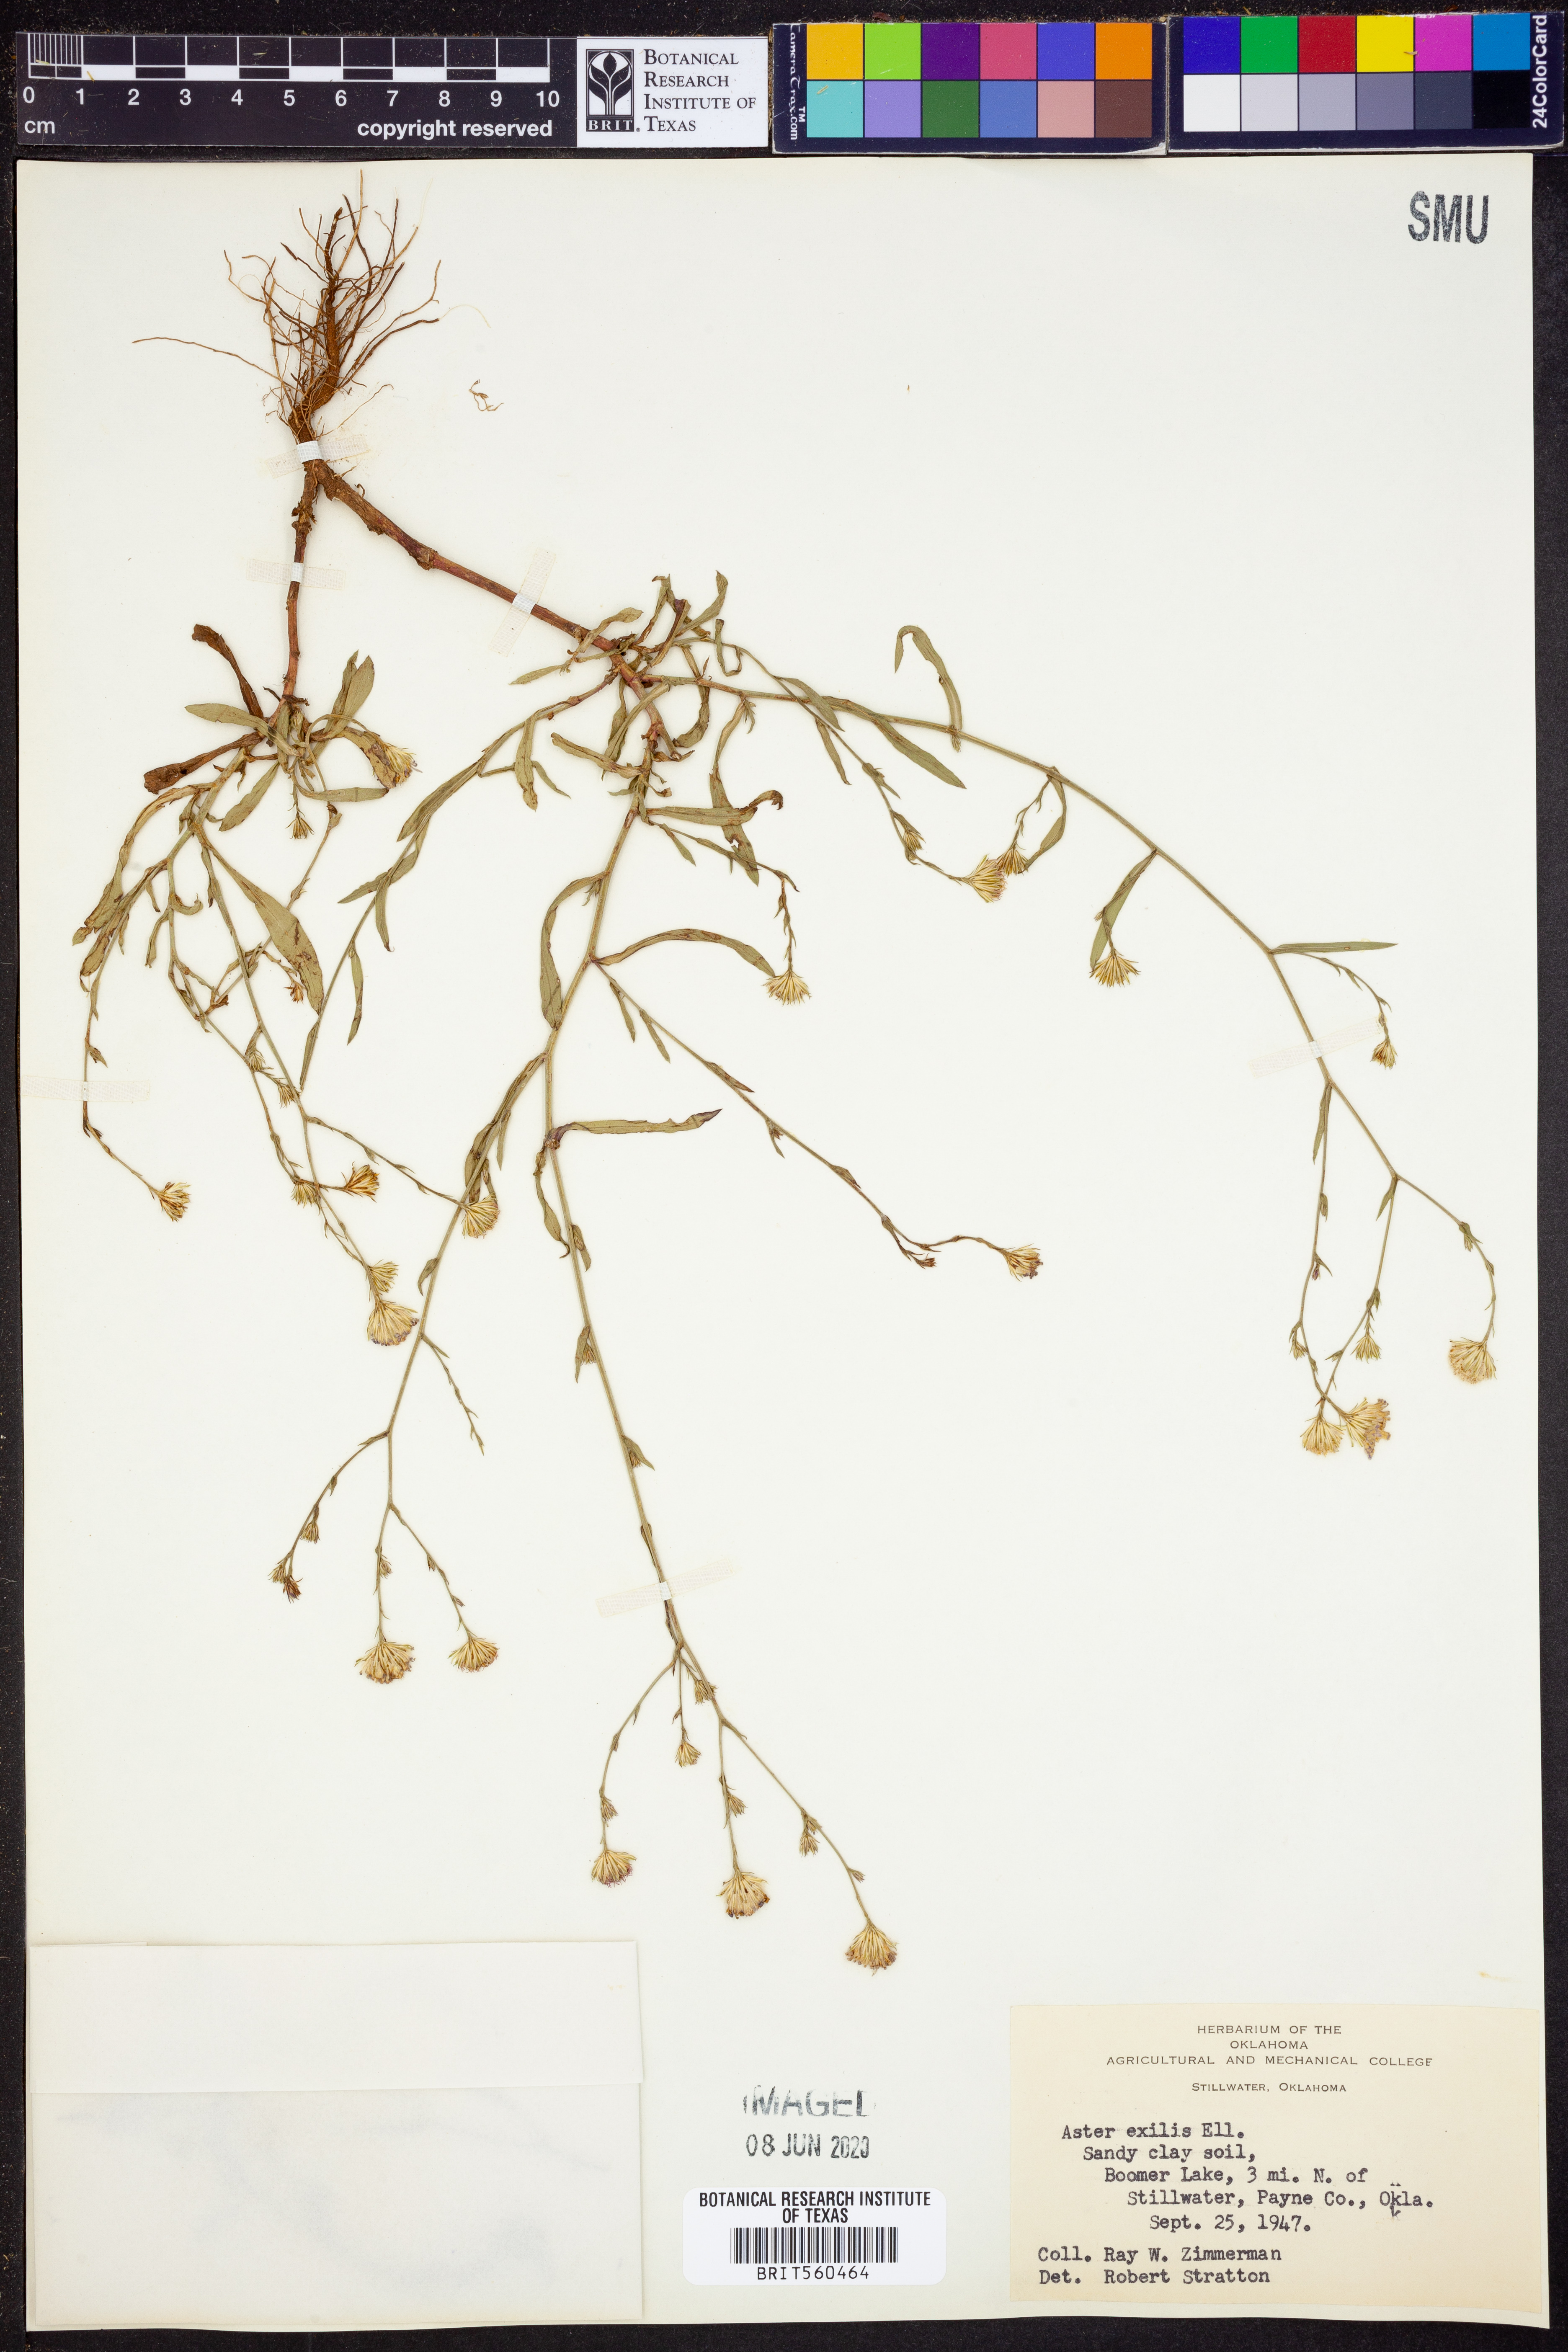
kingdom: Plantae
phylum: Tracheophyta
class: Magnoliopsida
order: Asterales
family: Asteraceae
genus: Symphyotrichum
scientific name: Symphyotrichum expansum
